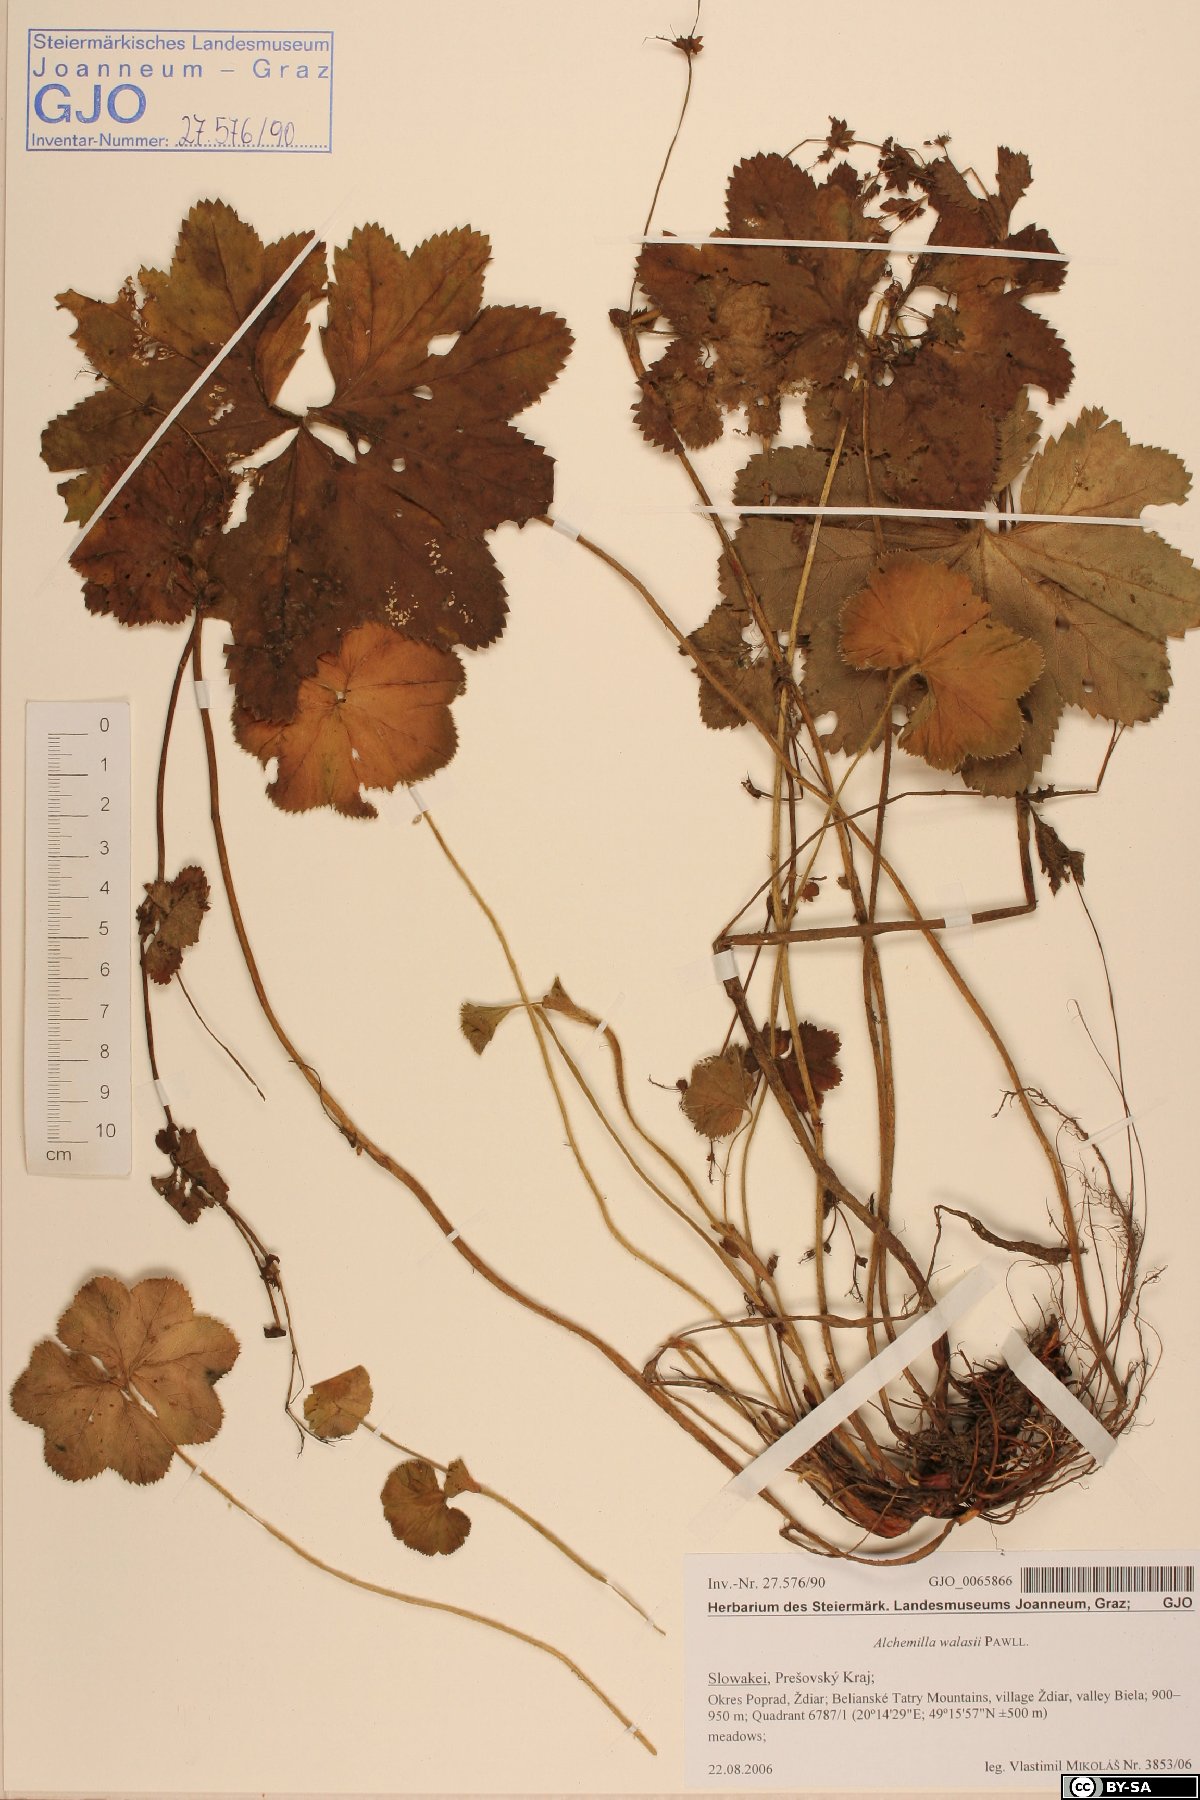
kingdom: Plantae
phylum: Tracheophyta
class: Magnoliopsida
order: Rosales
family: Rosaceae
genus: Alchemilla
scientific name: Alchemilla walasii
